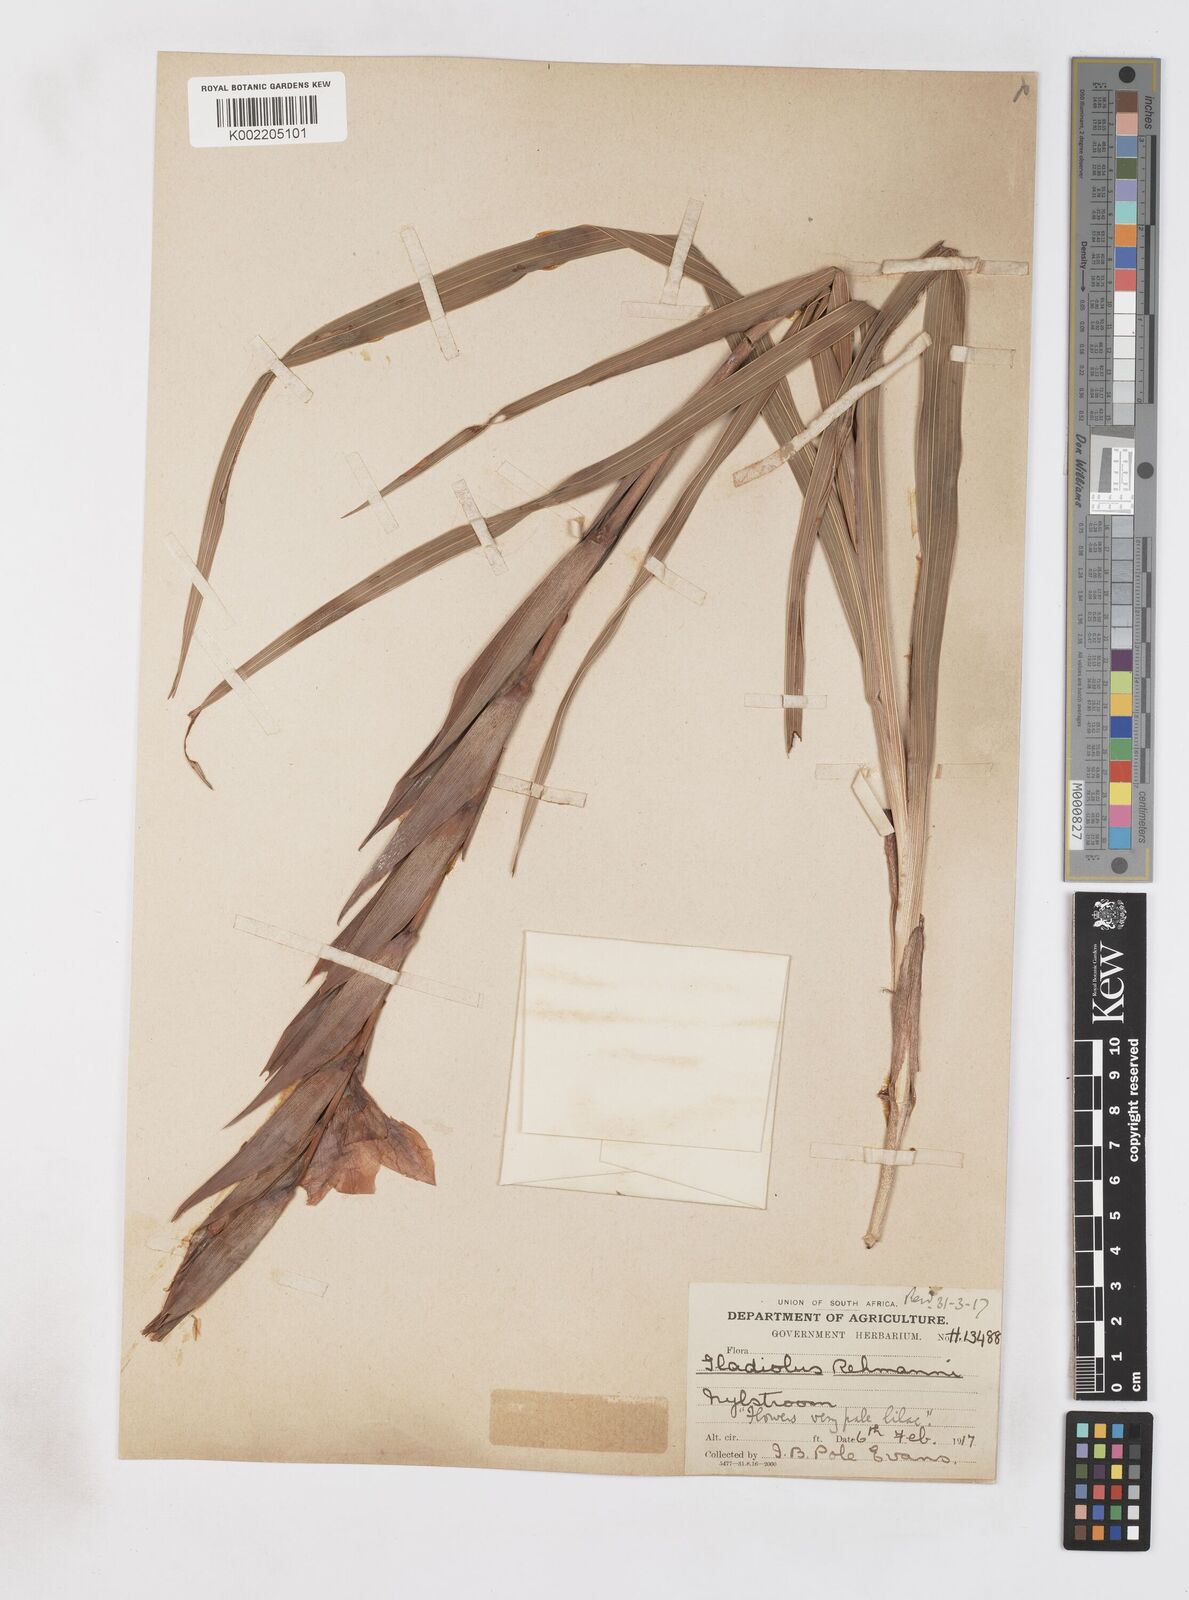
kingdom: Plantae
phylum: Tracheophyta
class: Liliopsida
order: Asparagales
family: Iridaceae
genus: Gladiolus
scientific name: Gladiolus rehmannii
